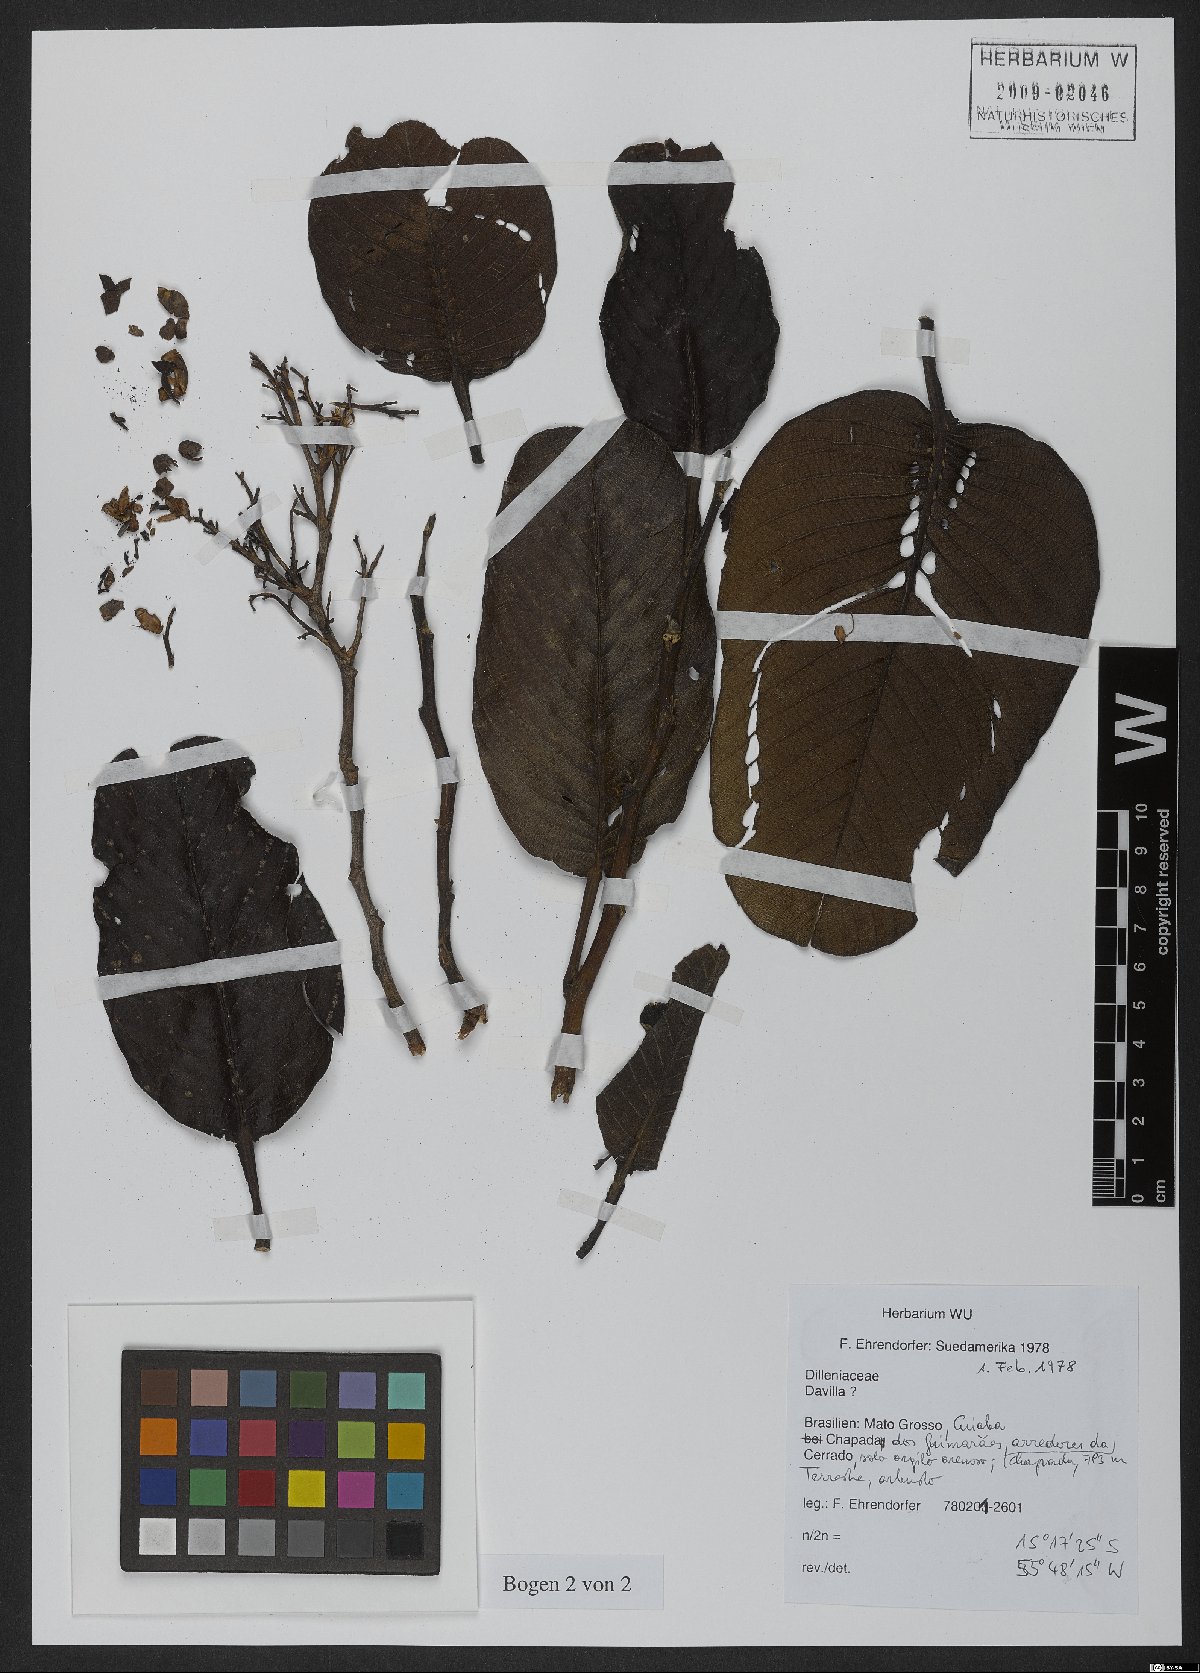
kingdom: Plantae
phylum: Tracheophyta
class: Magnoliopsida
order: Dilleniales
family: Dilleniaceae
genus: Davilla
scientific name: Davilla
